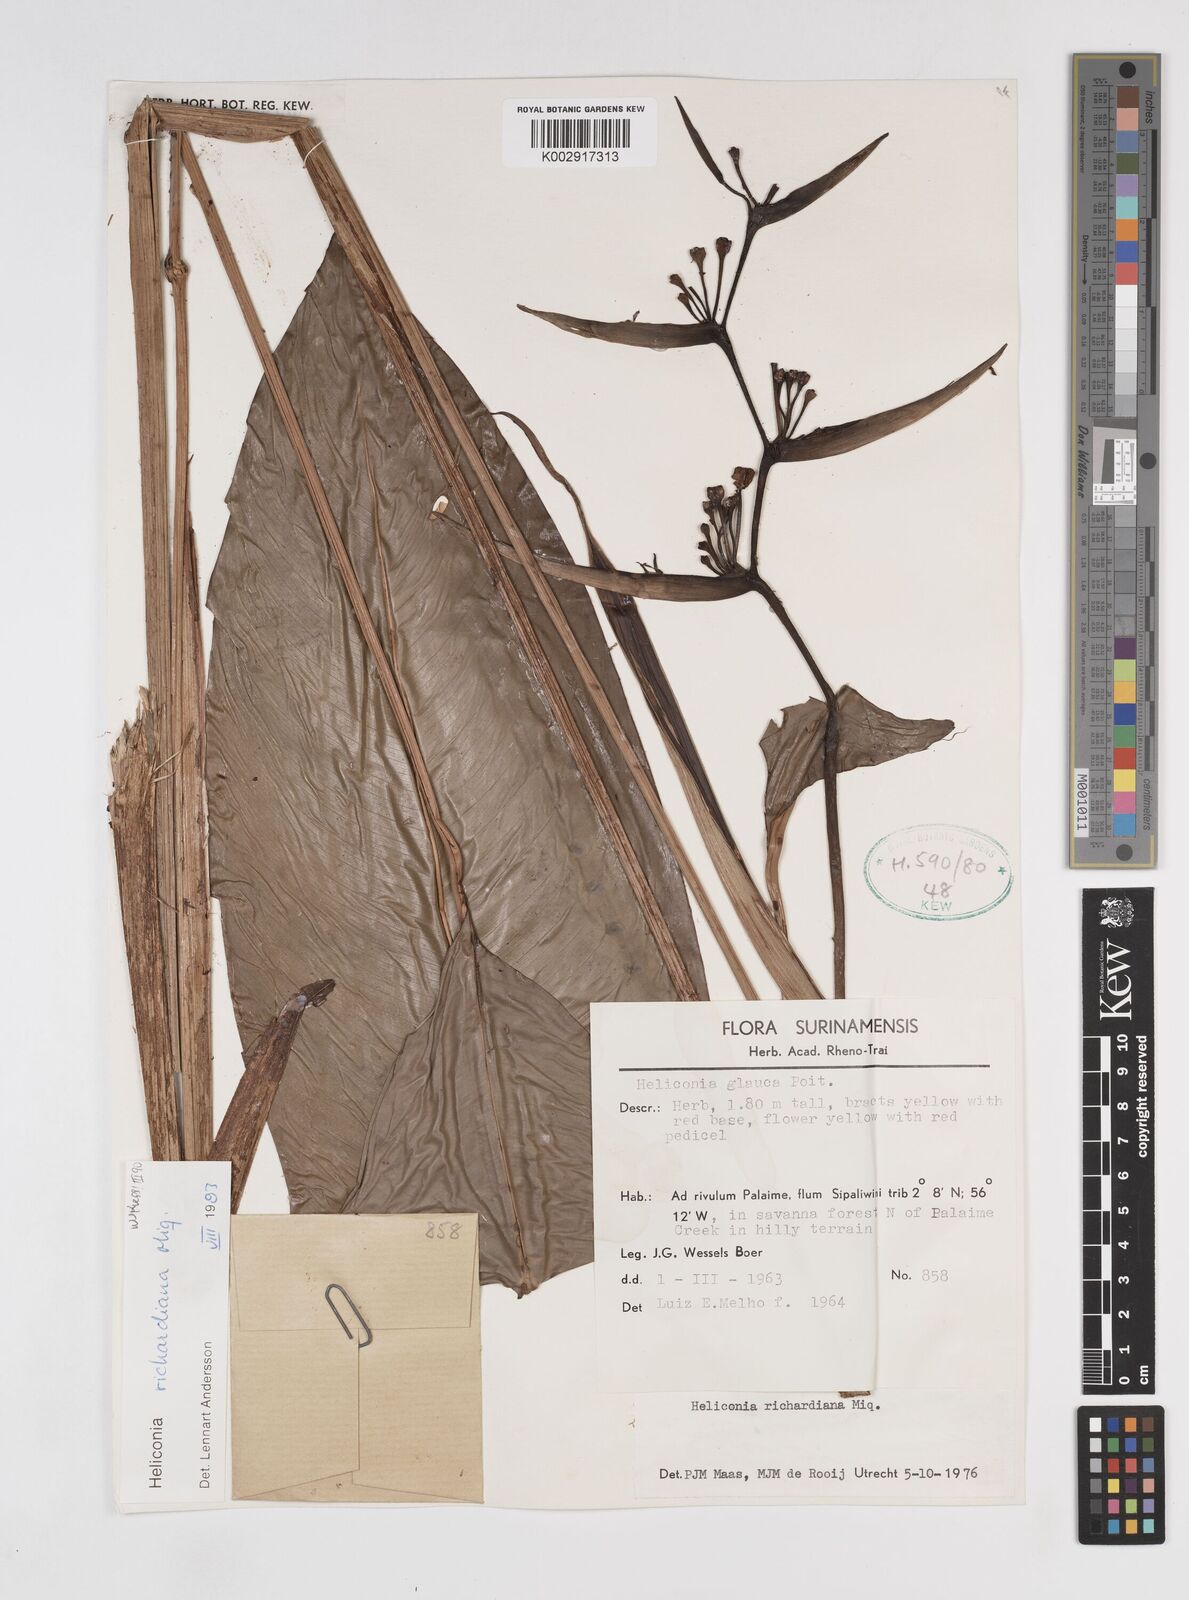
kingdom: Plantae
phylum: Tracheophyta
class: Liliopsida
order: Zingiberales
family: Heliconiaceae
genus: Heliconia
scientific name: Heliconia richardiana
